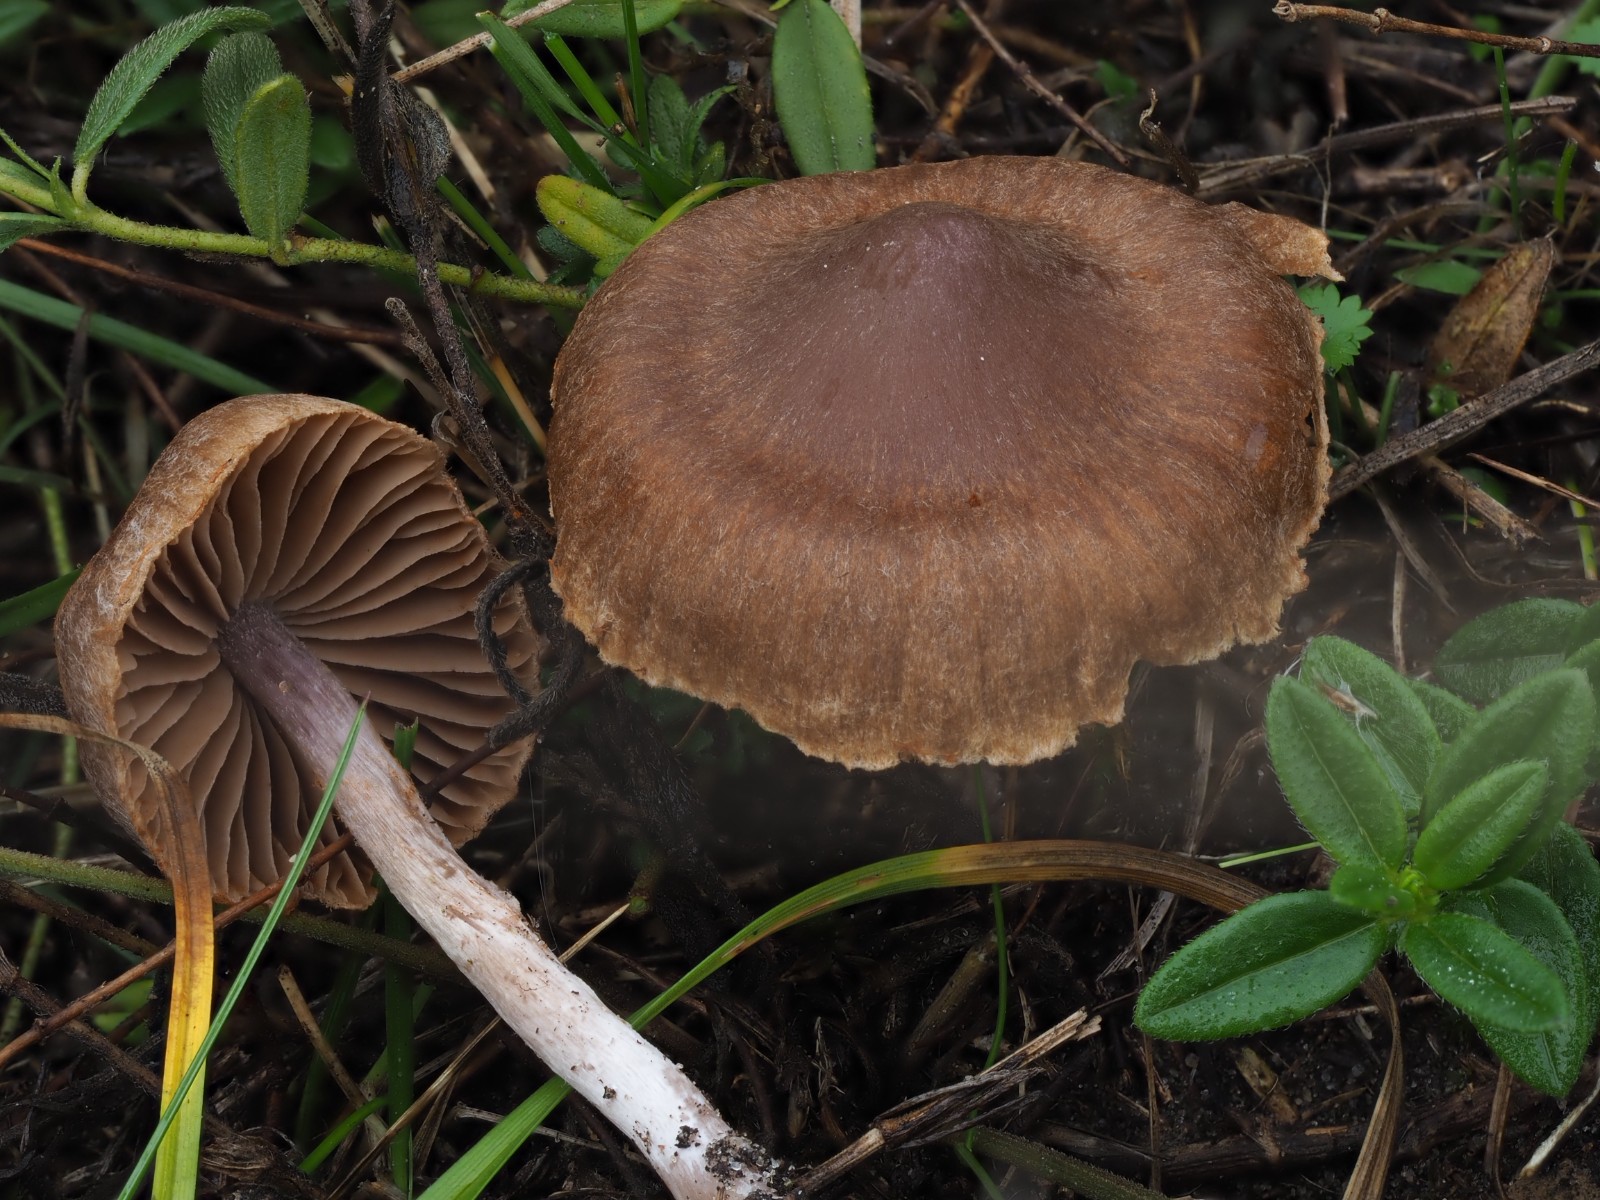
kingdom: Fungi
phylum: Basidiomycota
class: Agaricomycetes
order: Agaricales
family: Cortinariaceae
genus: Cortinarius
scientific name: Cortinarius
